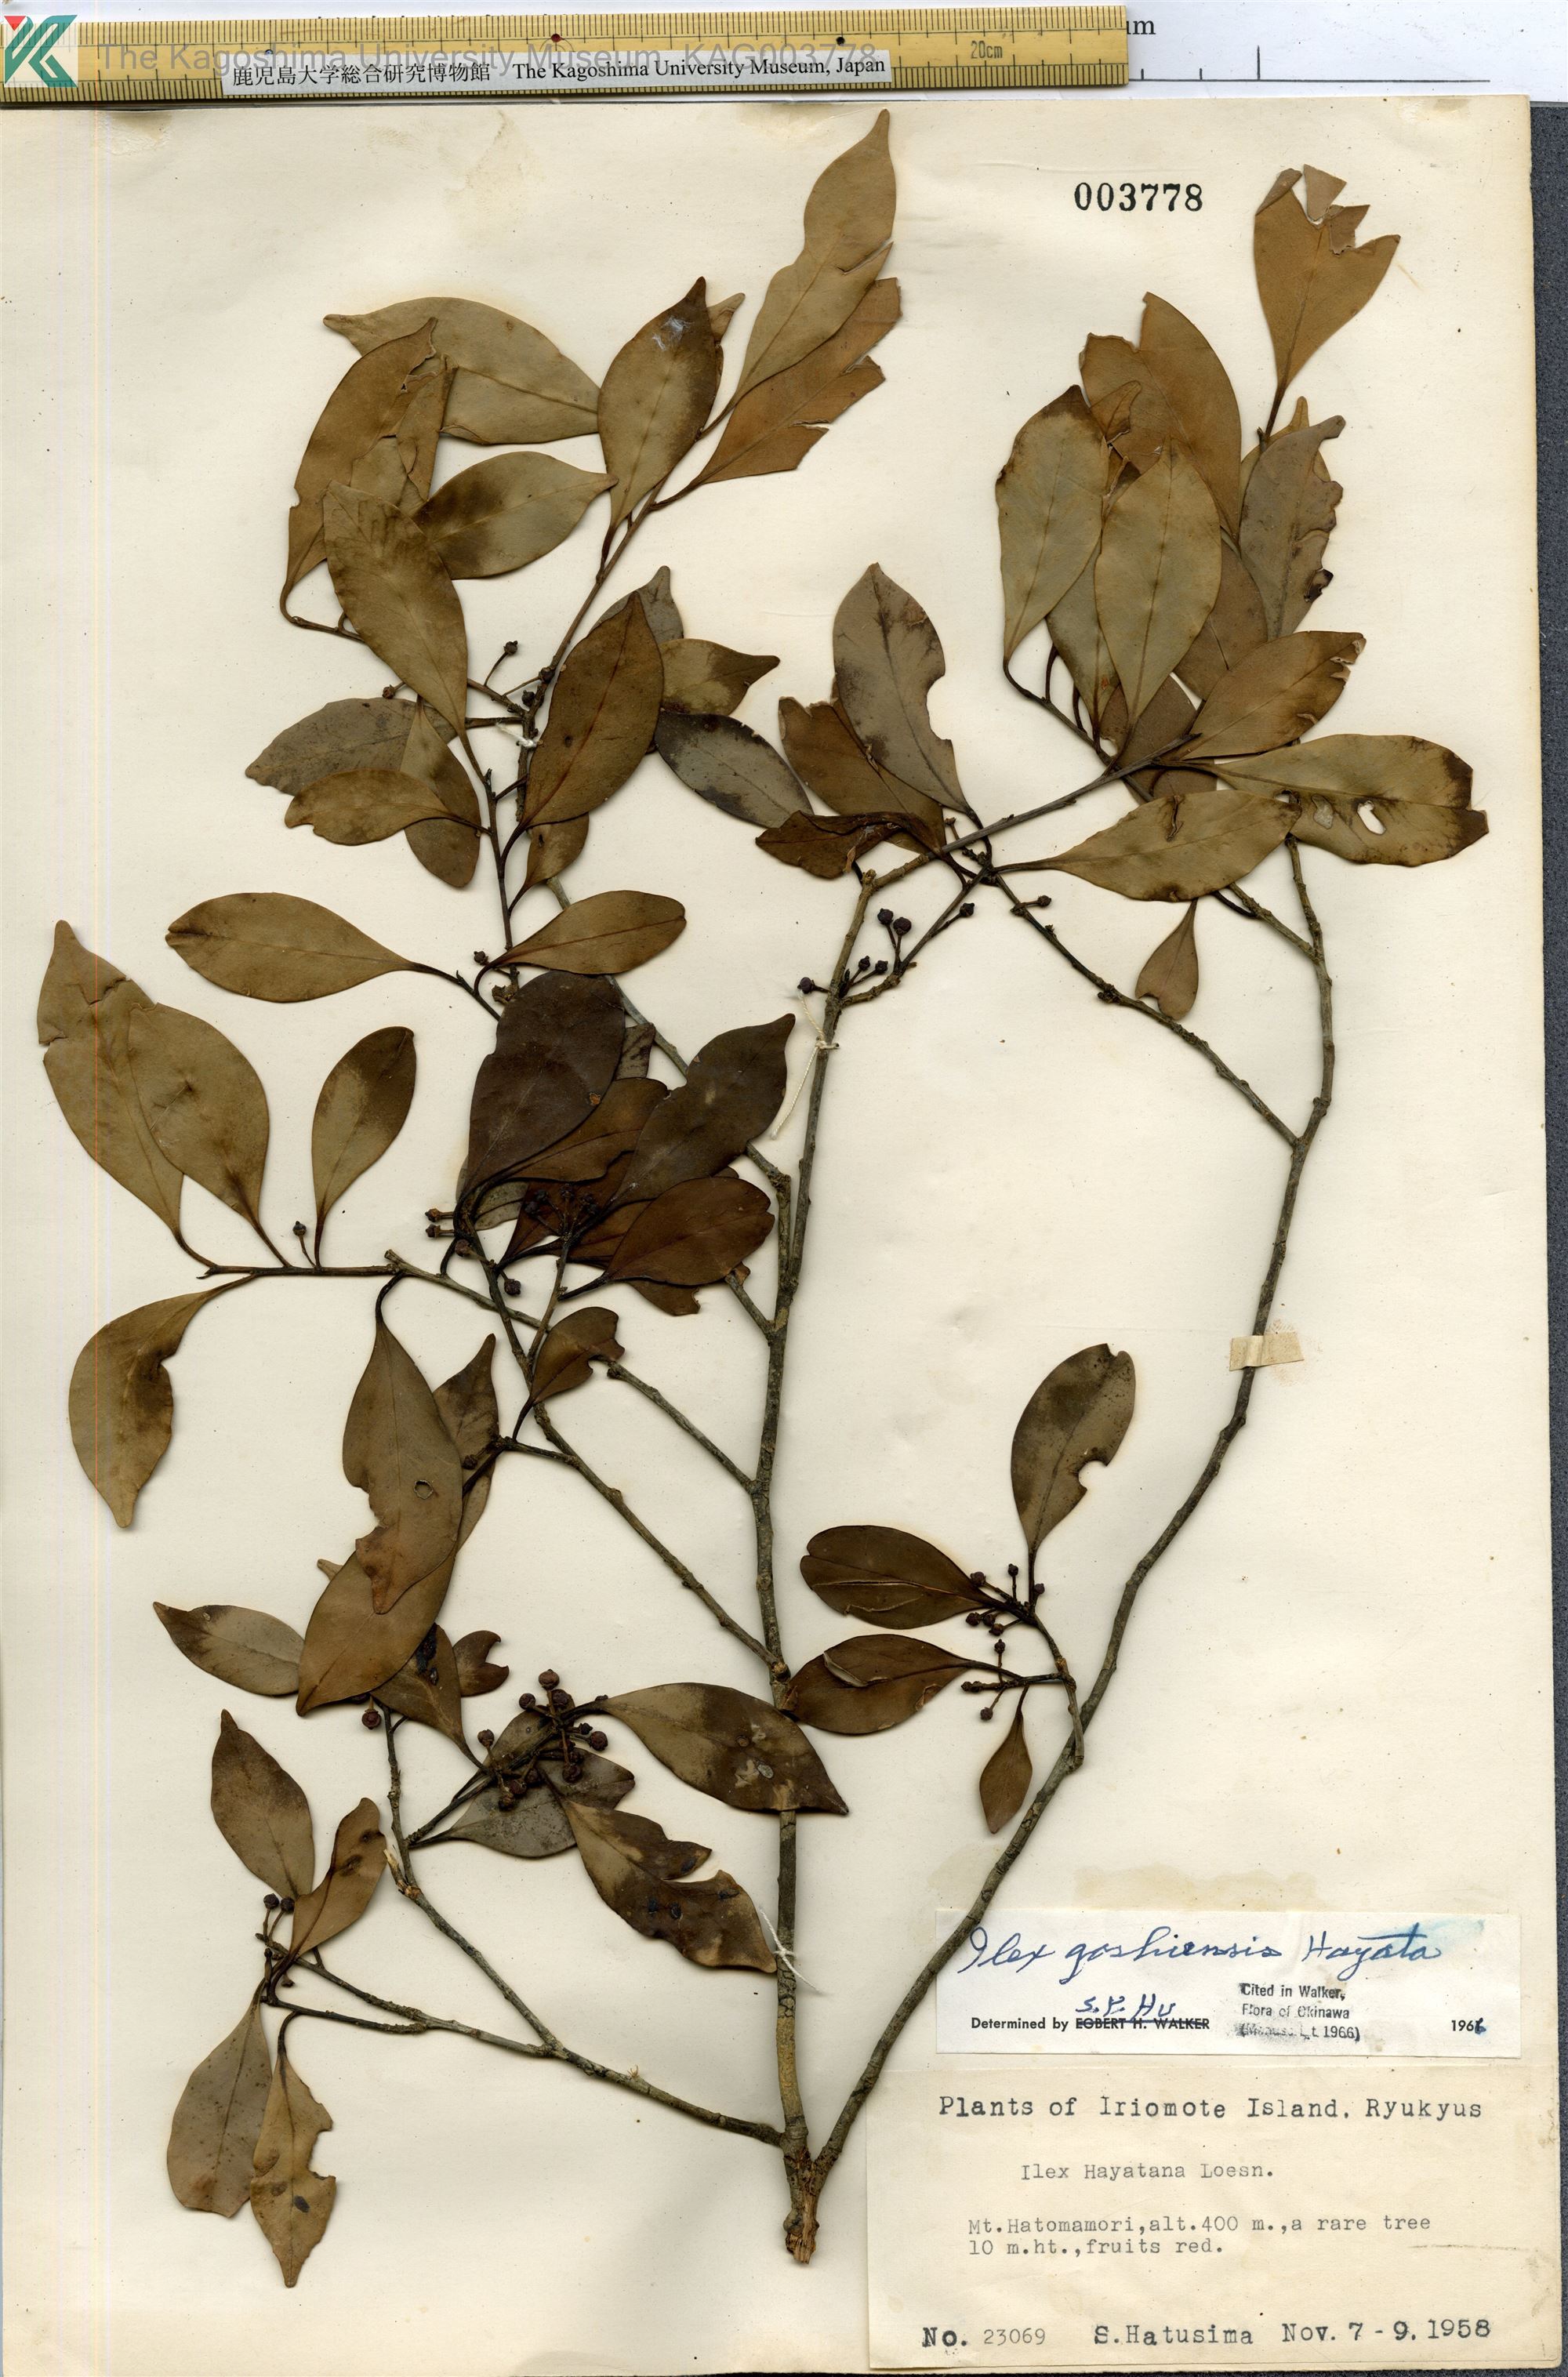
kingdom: Plantae
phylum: Tracheophyta
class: Magnoliopsida
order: Aquifoliales
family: Aquifoliaceae
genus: Ilex
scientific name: Ilex goshiensis
